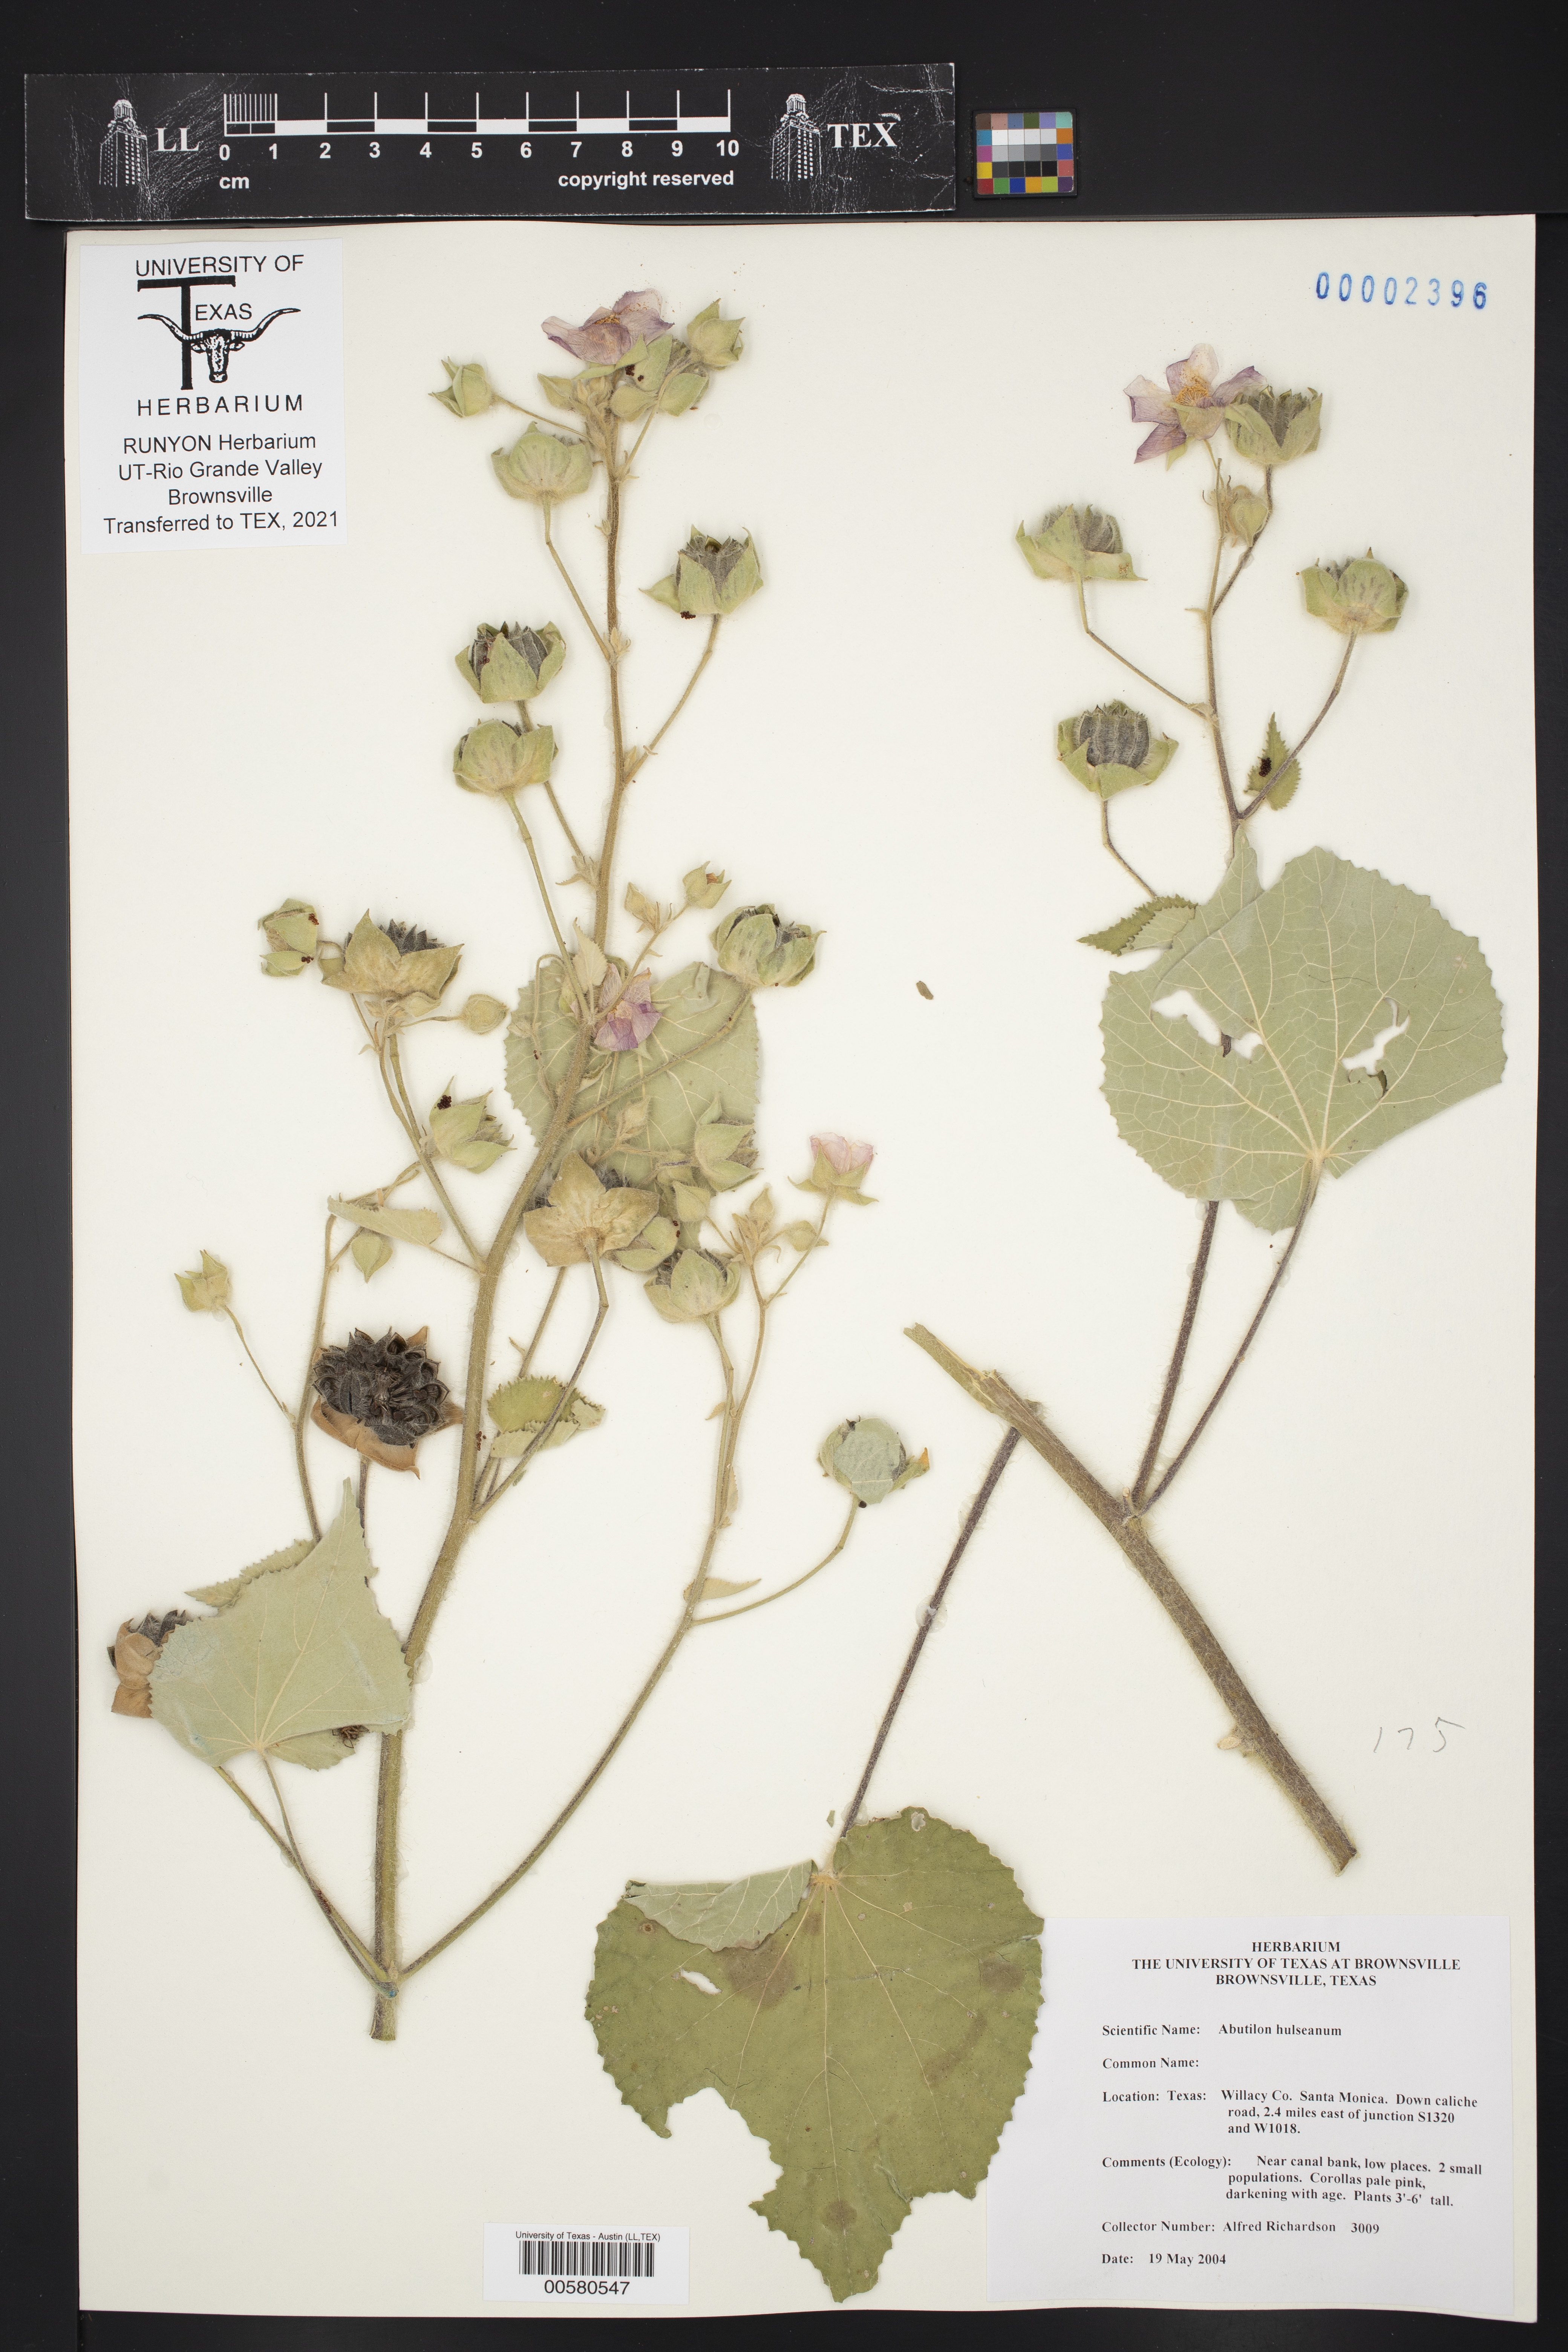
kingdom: Plantae
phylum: Tracheophyta
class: Magnoliopsida
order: Malvales
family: Malvaceae
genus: Abutilon
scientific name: Abutilon hulseanum
